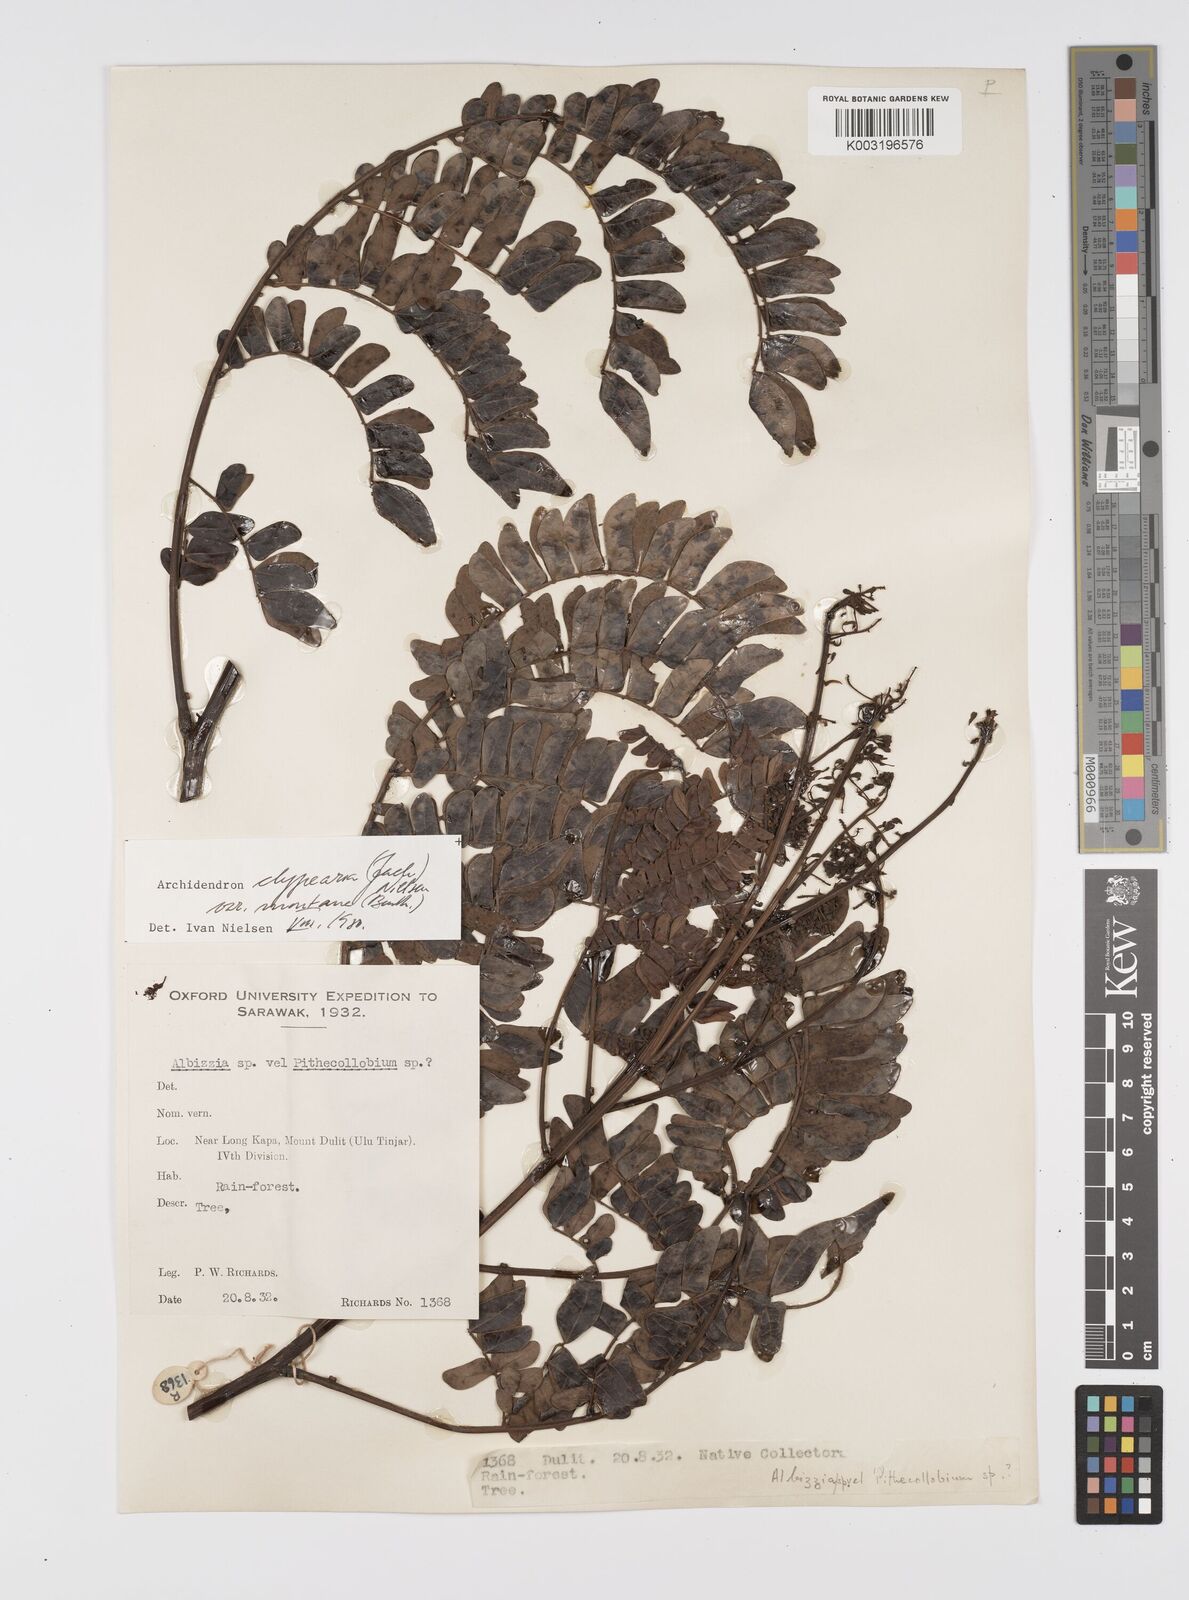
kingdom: Plantae
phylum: Tracheophyta
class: Magnoliopsida
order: Fabales
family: Fabaceae
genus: Archidendron
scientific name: Archidendron clypearia
